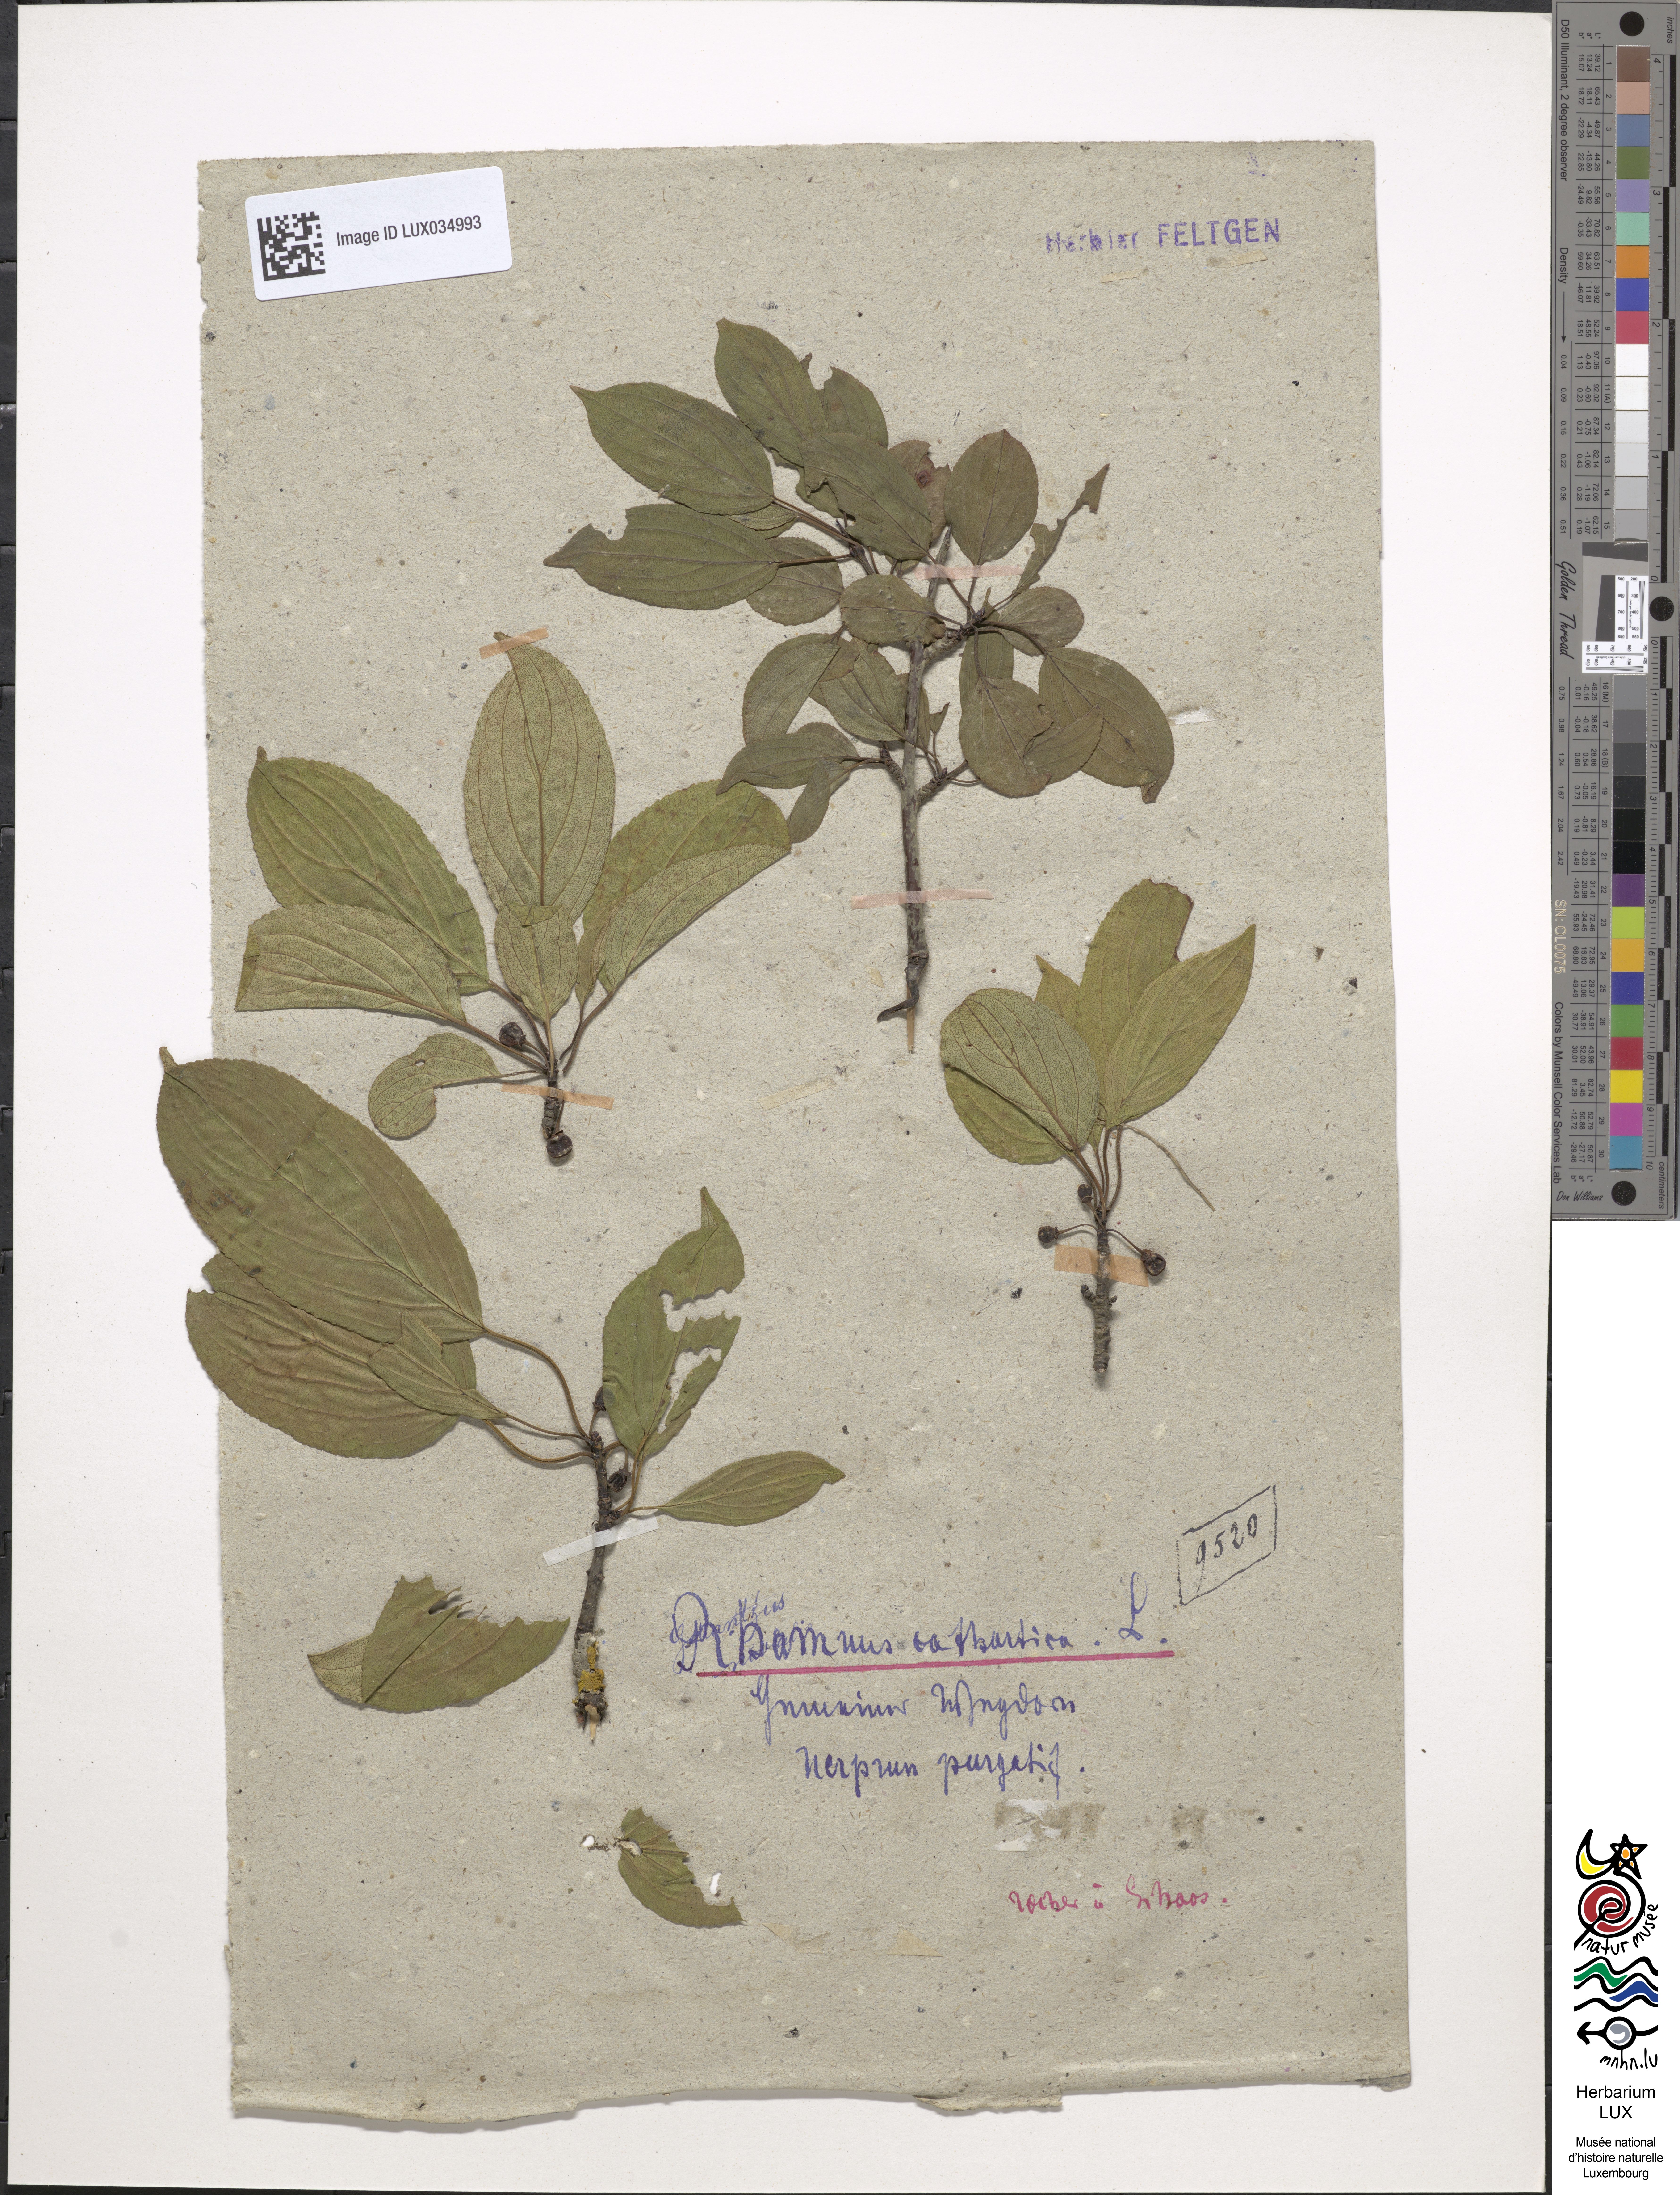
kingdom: Plantae
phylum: Tracheophyta
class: Magnoliopsida
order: Rosales
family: Rhamnaceae
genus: Rhamnus
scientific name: Rhamnus cathartica
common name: Common buckthorn
